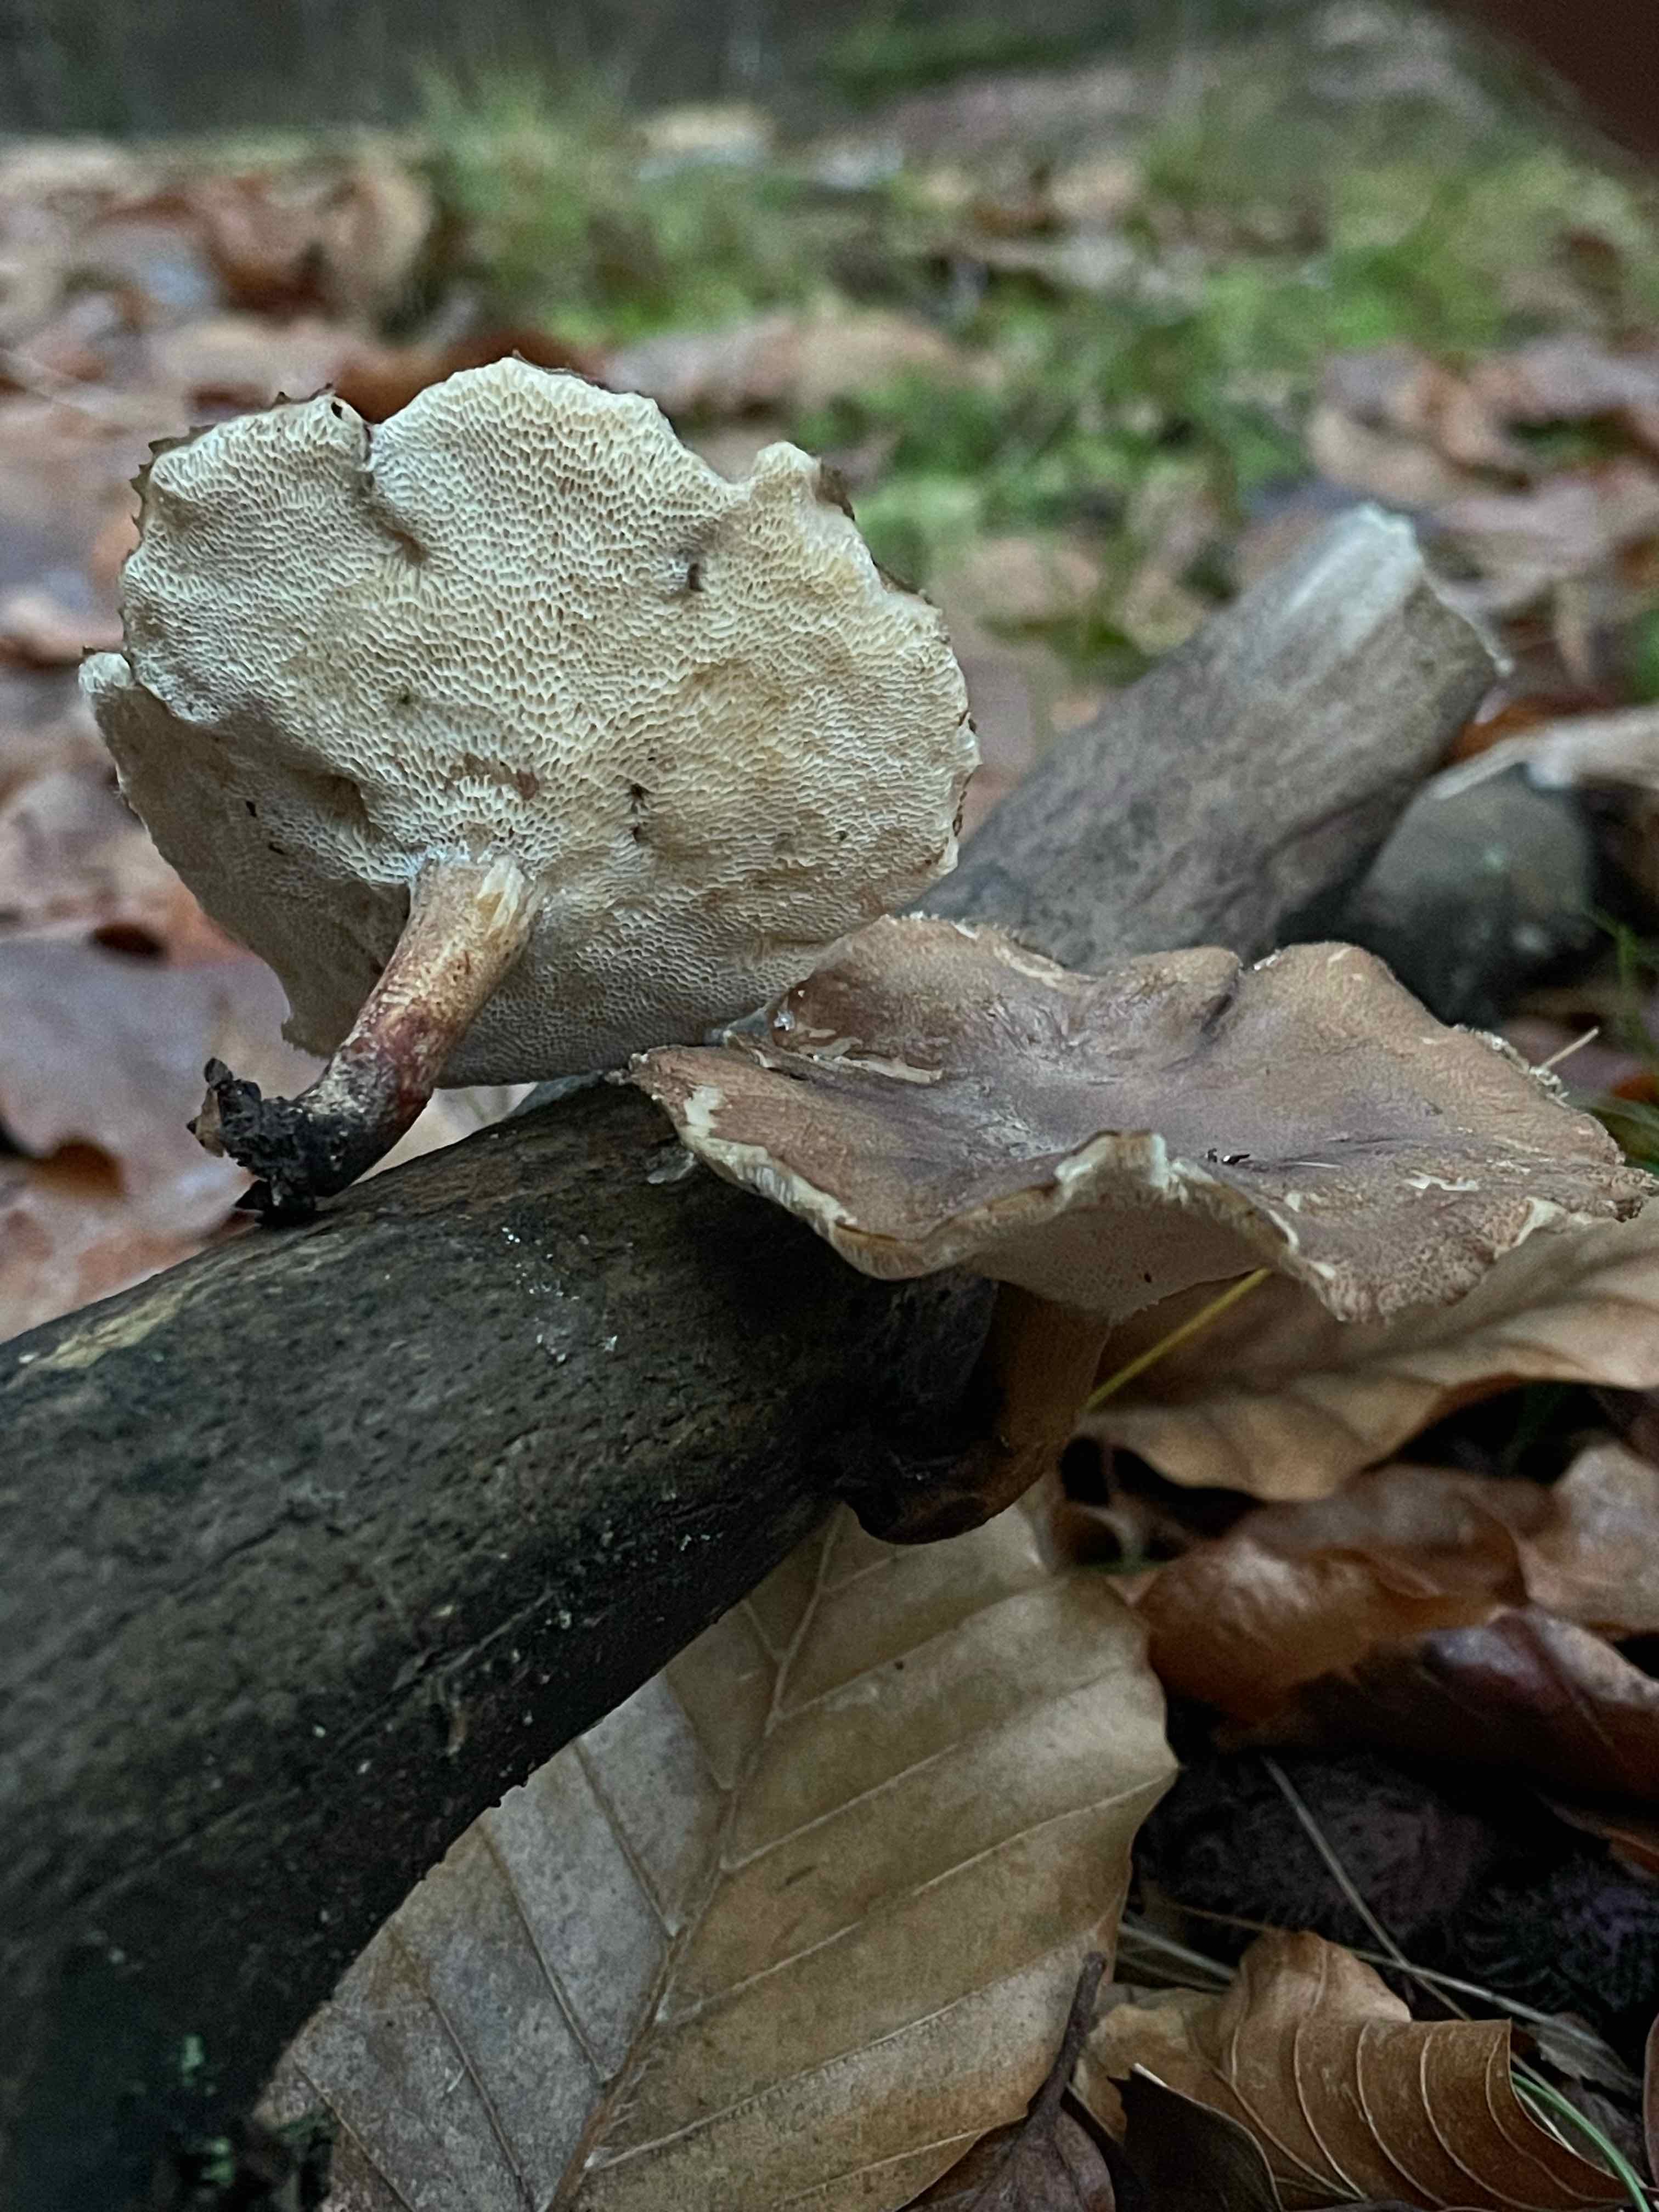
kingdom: Fungi
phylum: Basidiomycota
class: Agaricomycetes
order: Polyporales
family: Polyporaceae
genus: Lentinus
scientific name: Lentinus brumalis
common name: vinter-stilkporesvamp
